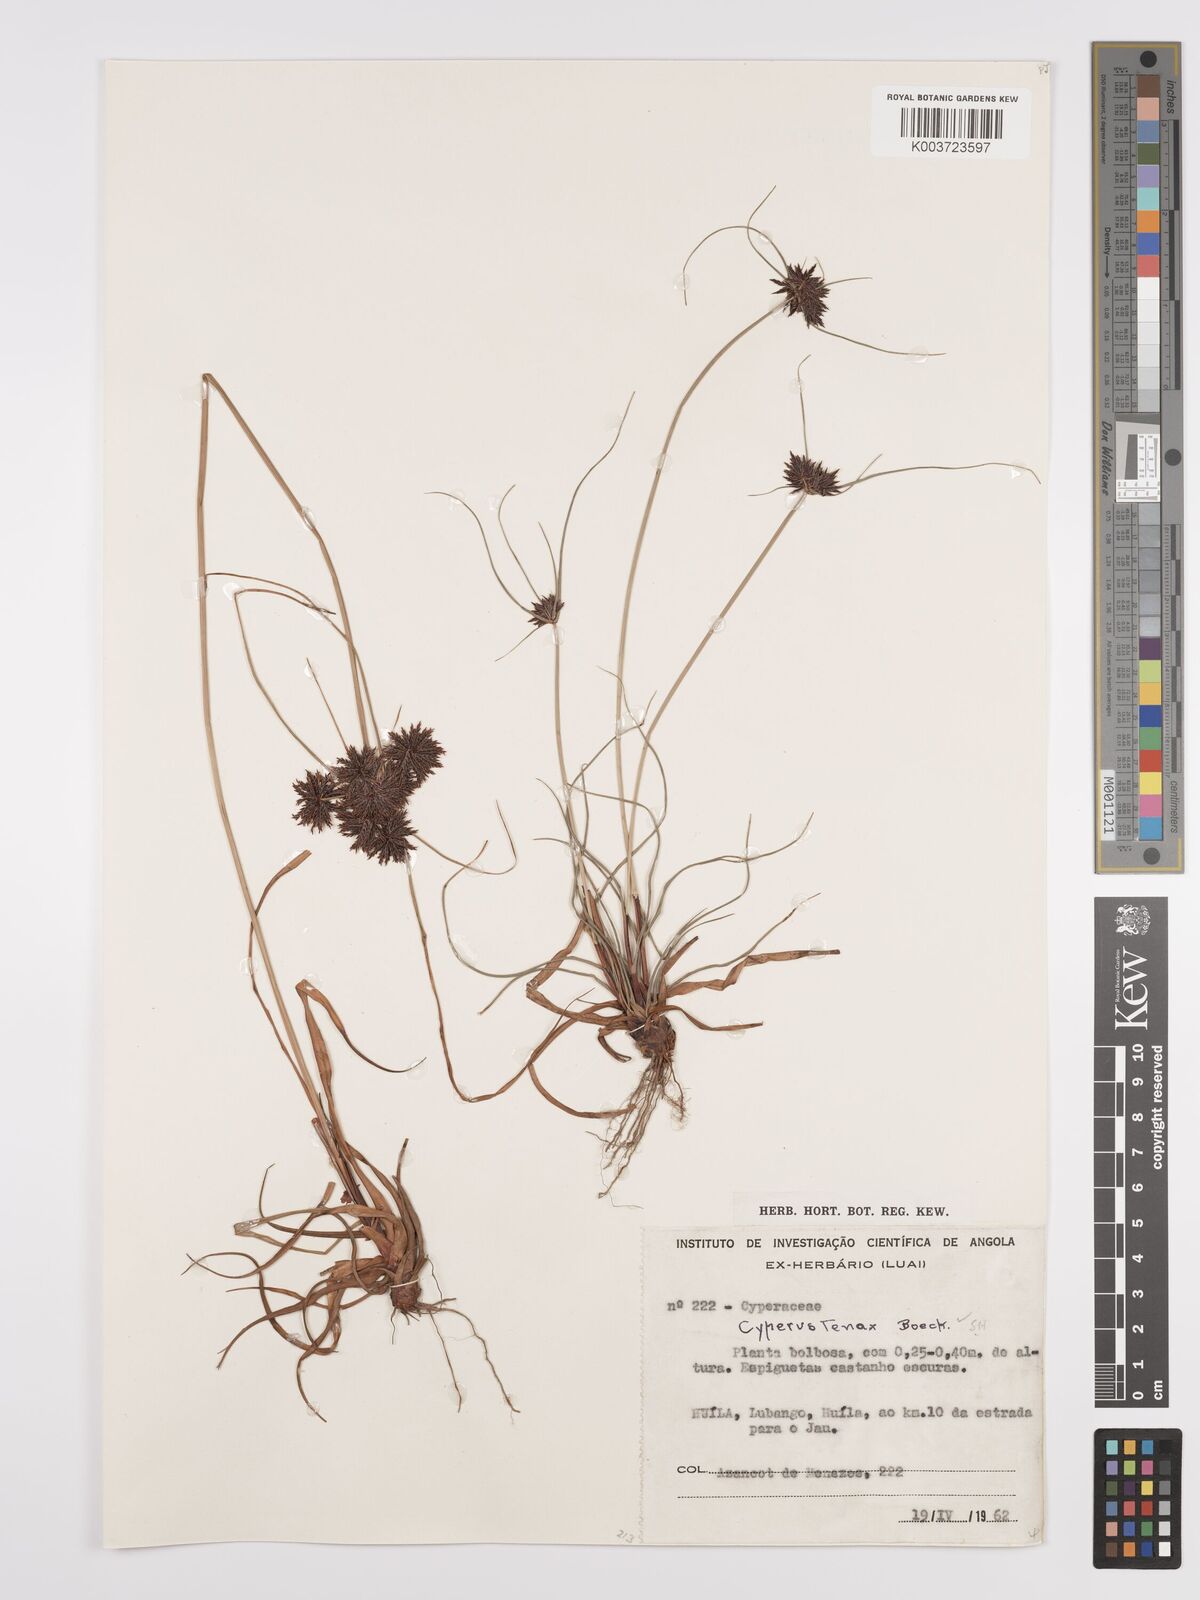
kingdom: Plantae
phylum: Tracheophyta
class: Liliopsida
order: Poales
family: Cyperaceae
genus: Cyperus
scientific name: Cyperus tenax
